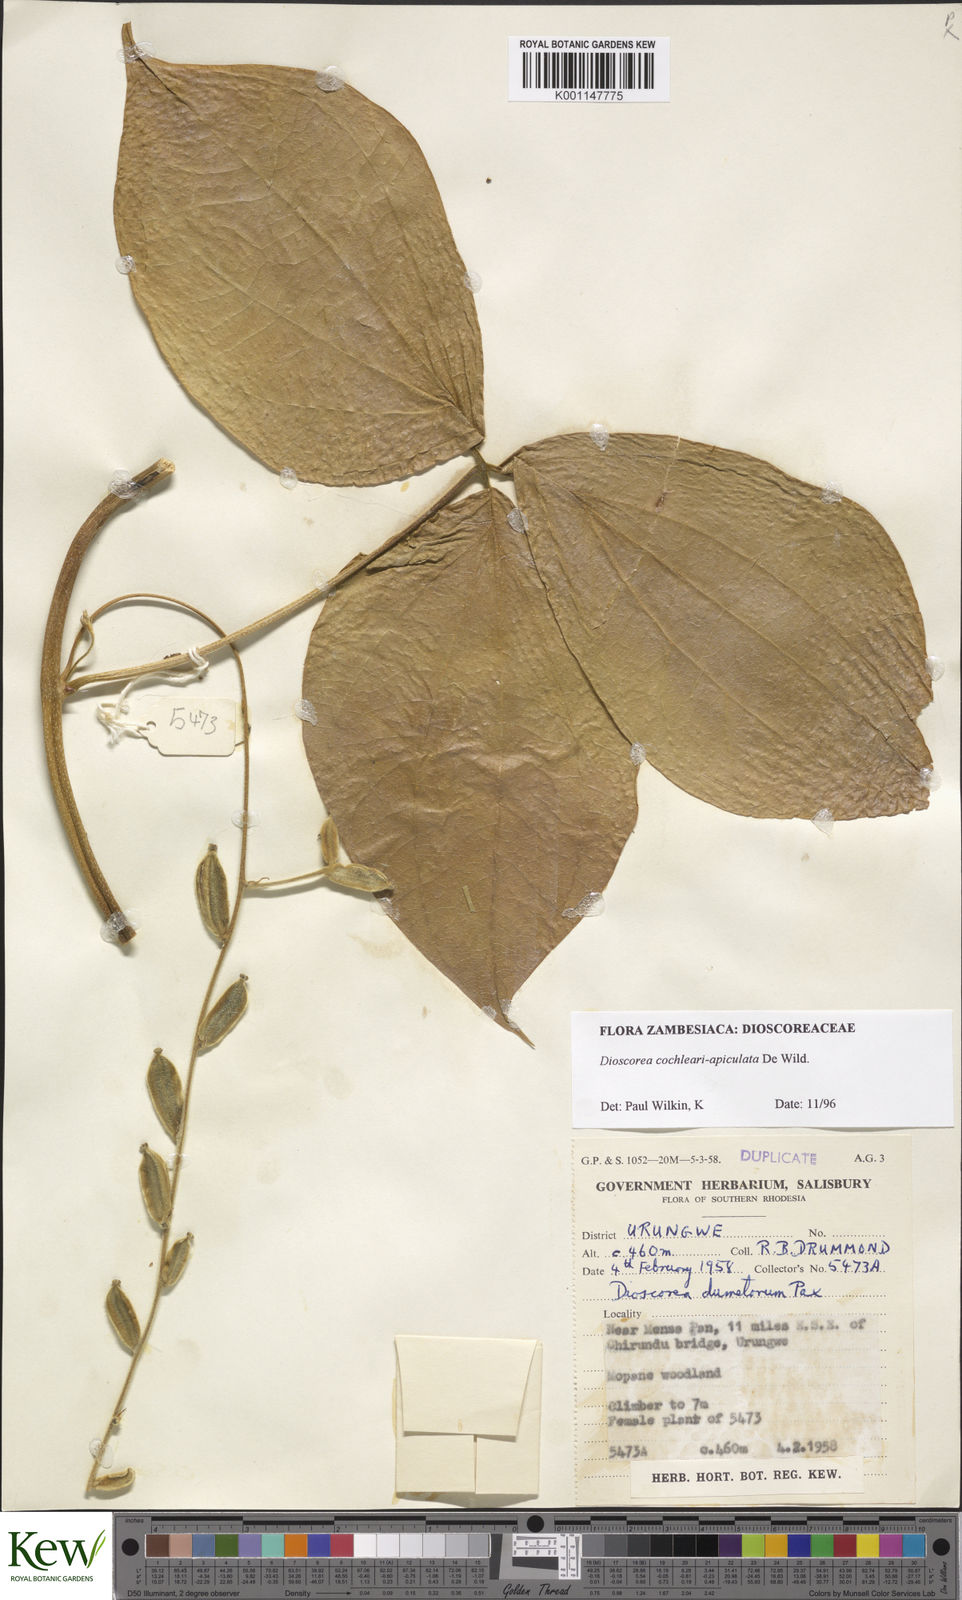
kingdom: Plantae
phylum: Tracheophyta
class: Liliopsida
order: Dioscoreales
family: Dioscoreaceae
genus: Dioscorea
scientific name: Dioscorea cochleariapiculata
